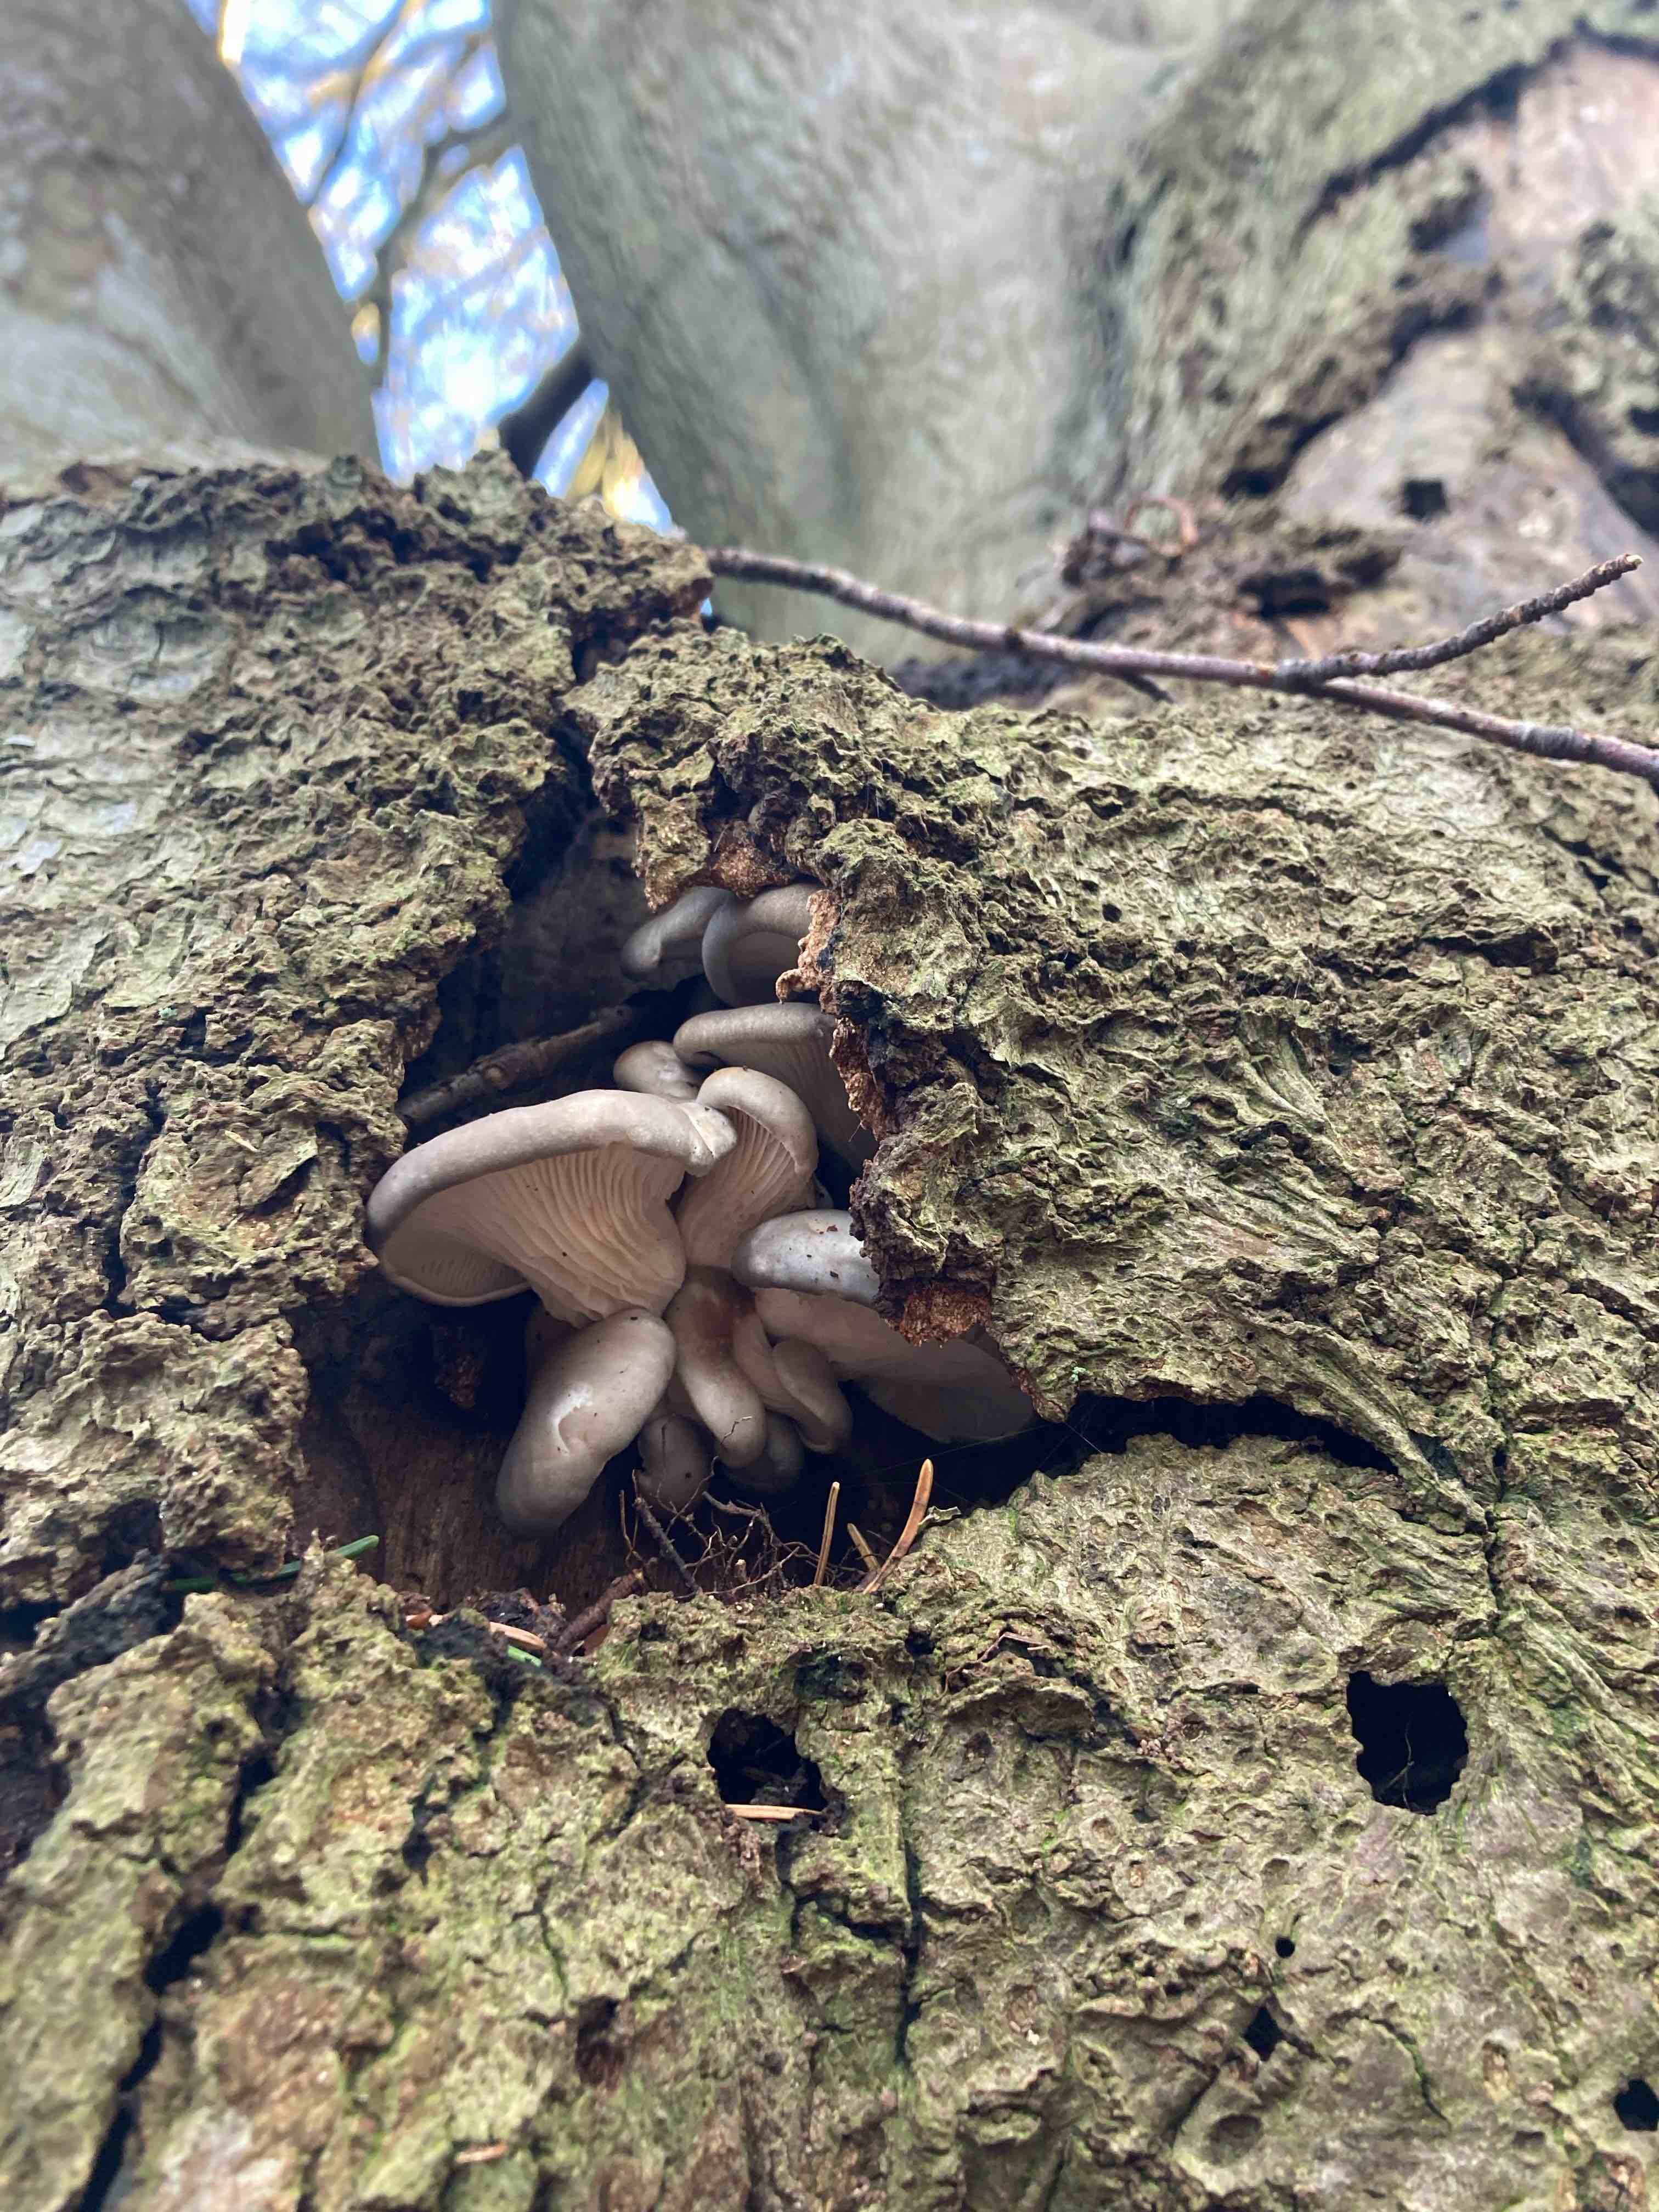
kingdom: Fungi
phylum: Basidiomycota
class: Agaricomycetes
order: Agaricales
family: Pleurotaceae
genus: Pleurotus
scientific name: Pleurotus ostreatus
